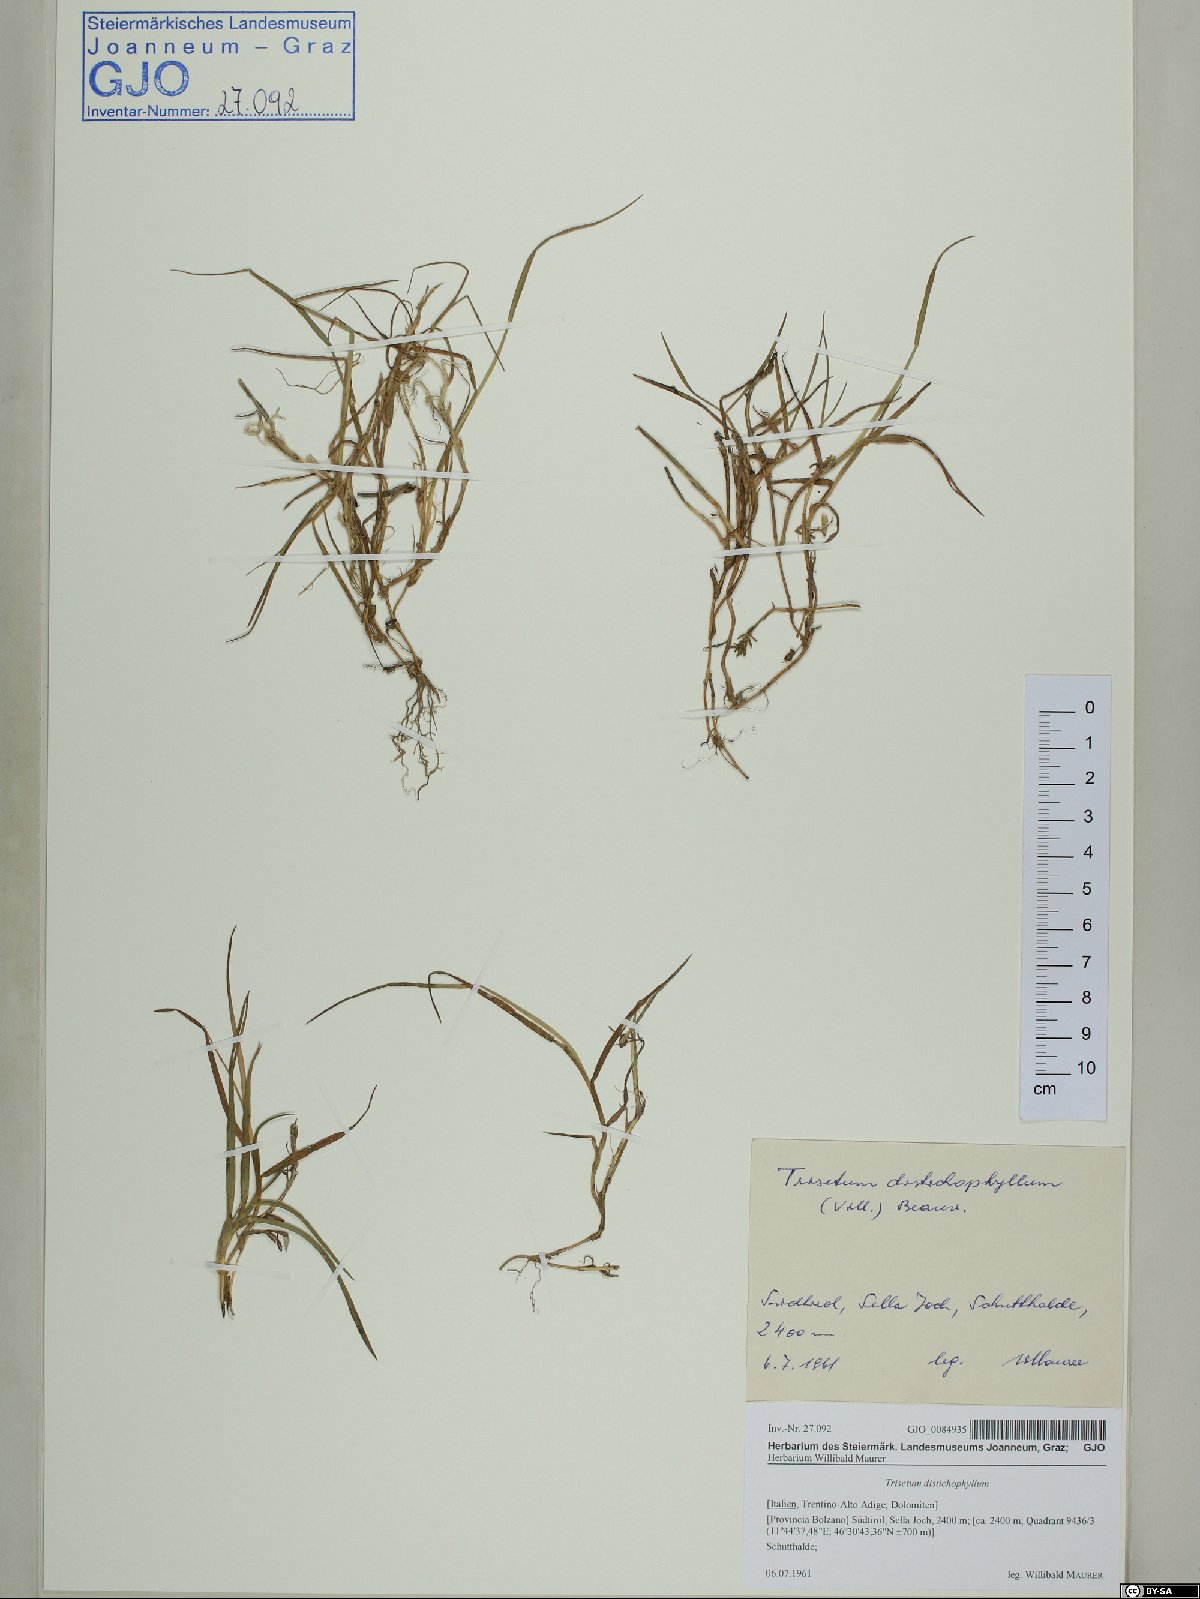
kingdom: Plantae
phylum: Tracheophyta
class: Liliopsida
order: Poales
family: Poaceae
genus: Acrospelion
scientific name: Acrospelion distichophyllum
